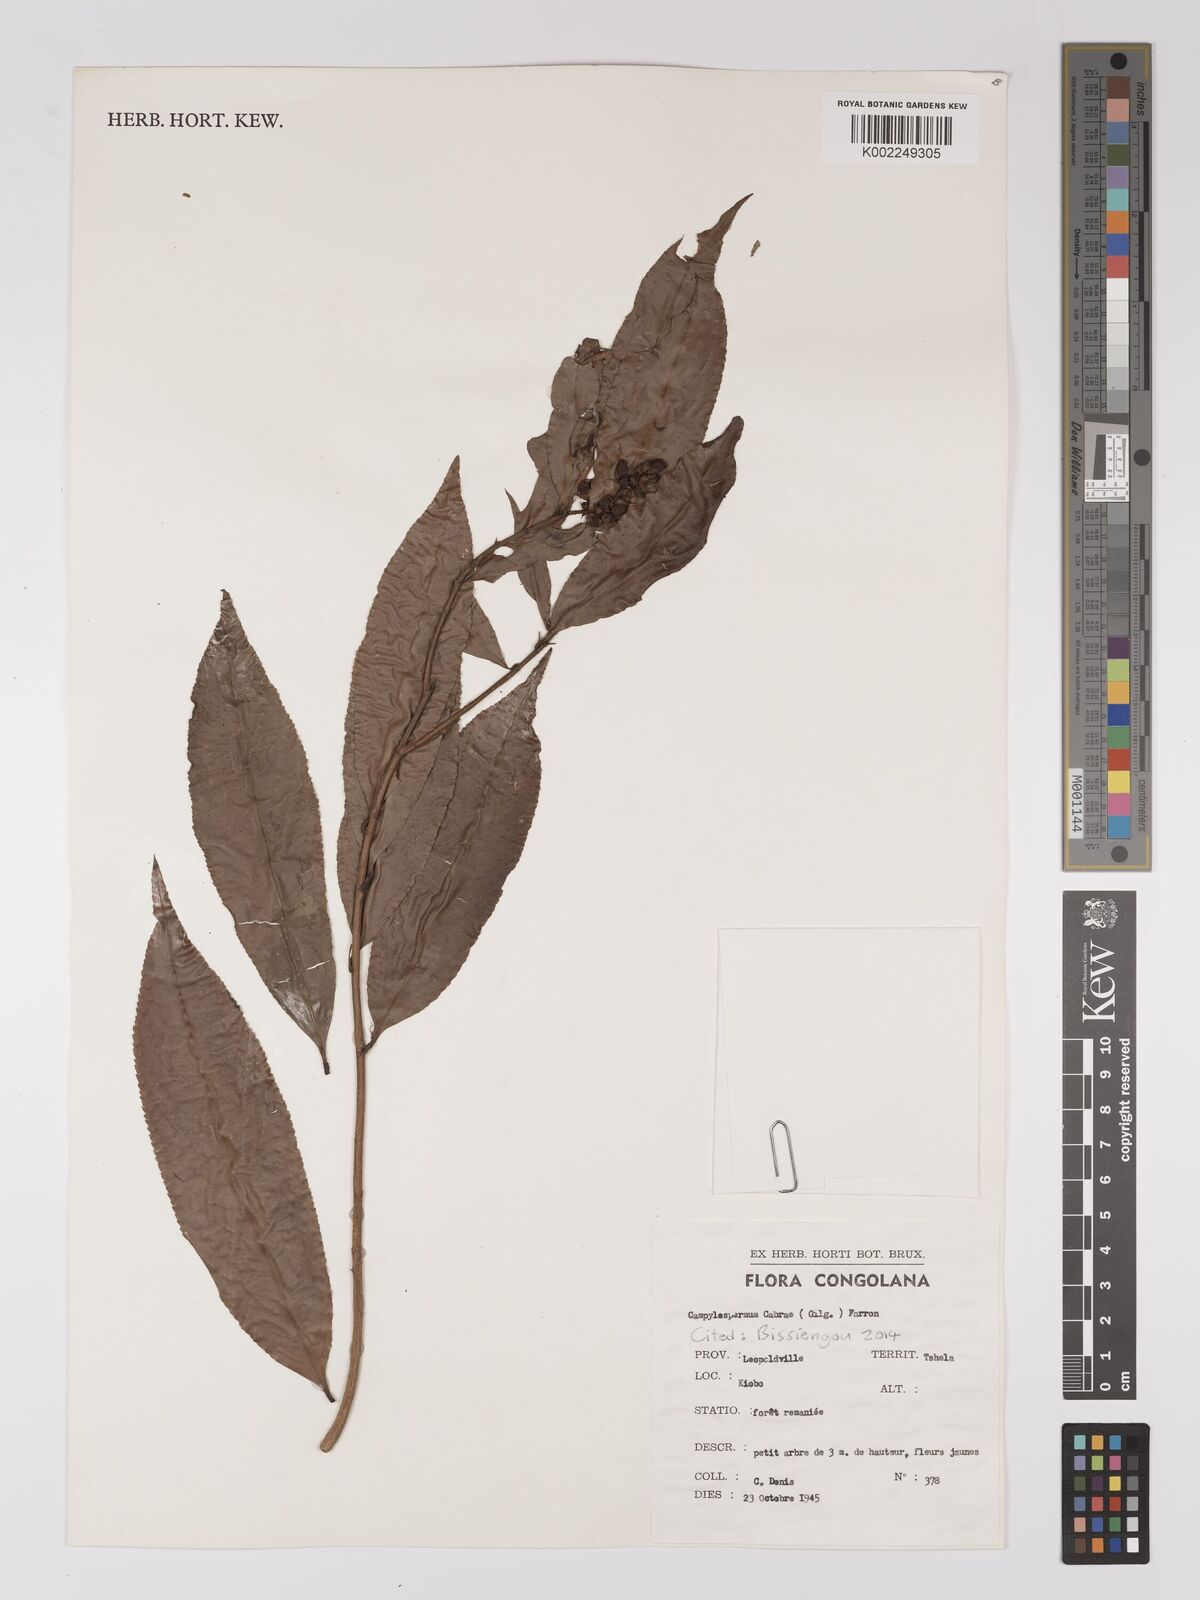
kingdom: Plantae
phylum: Tracheophyta
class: Magnoliopsida
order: Malpighiales
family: Ochnaceae
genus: Campylospermum
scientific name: Campylospermum cabrae
